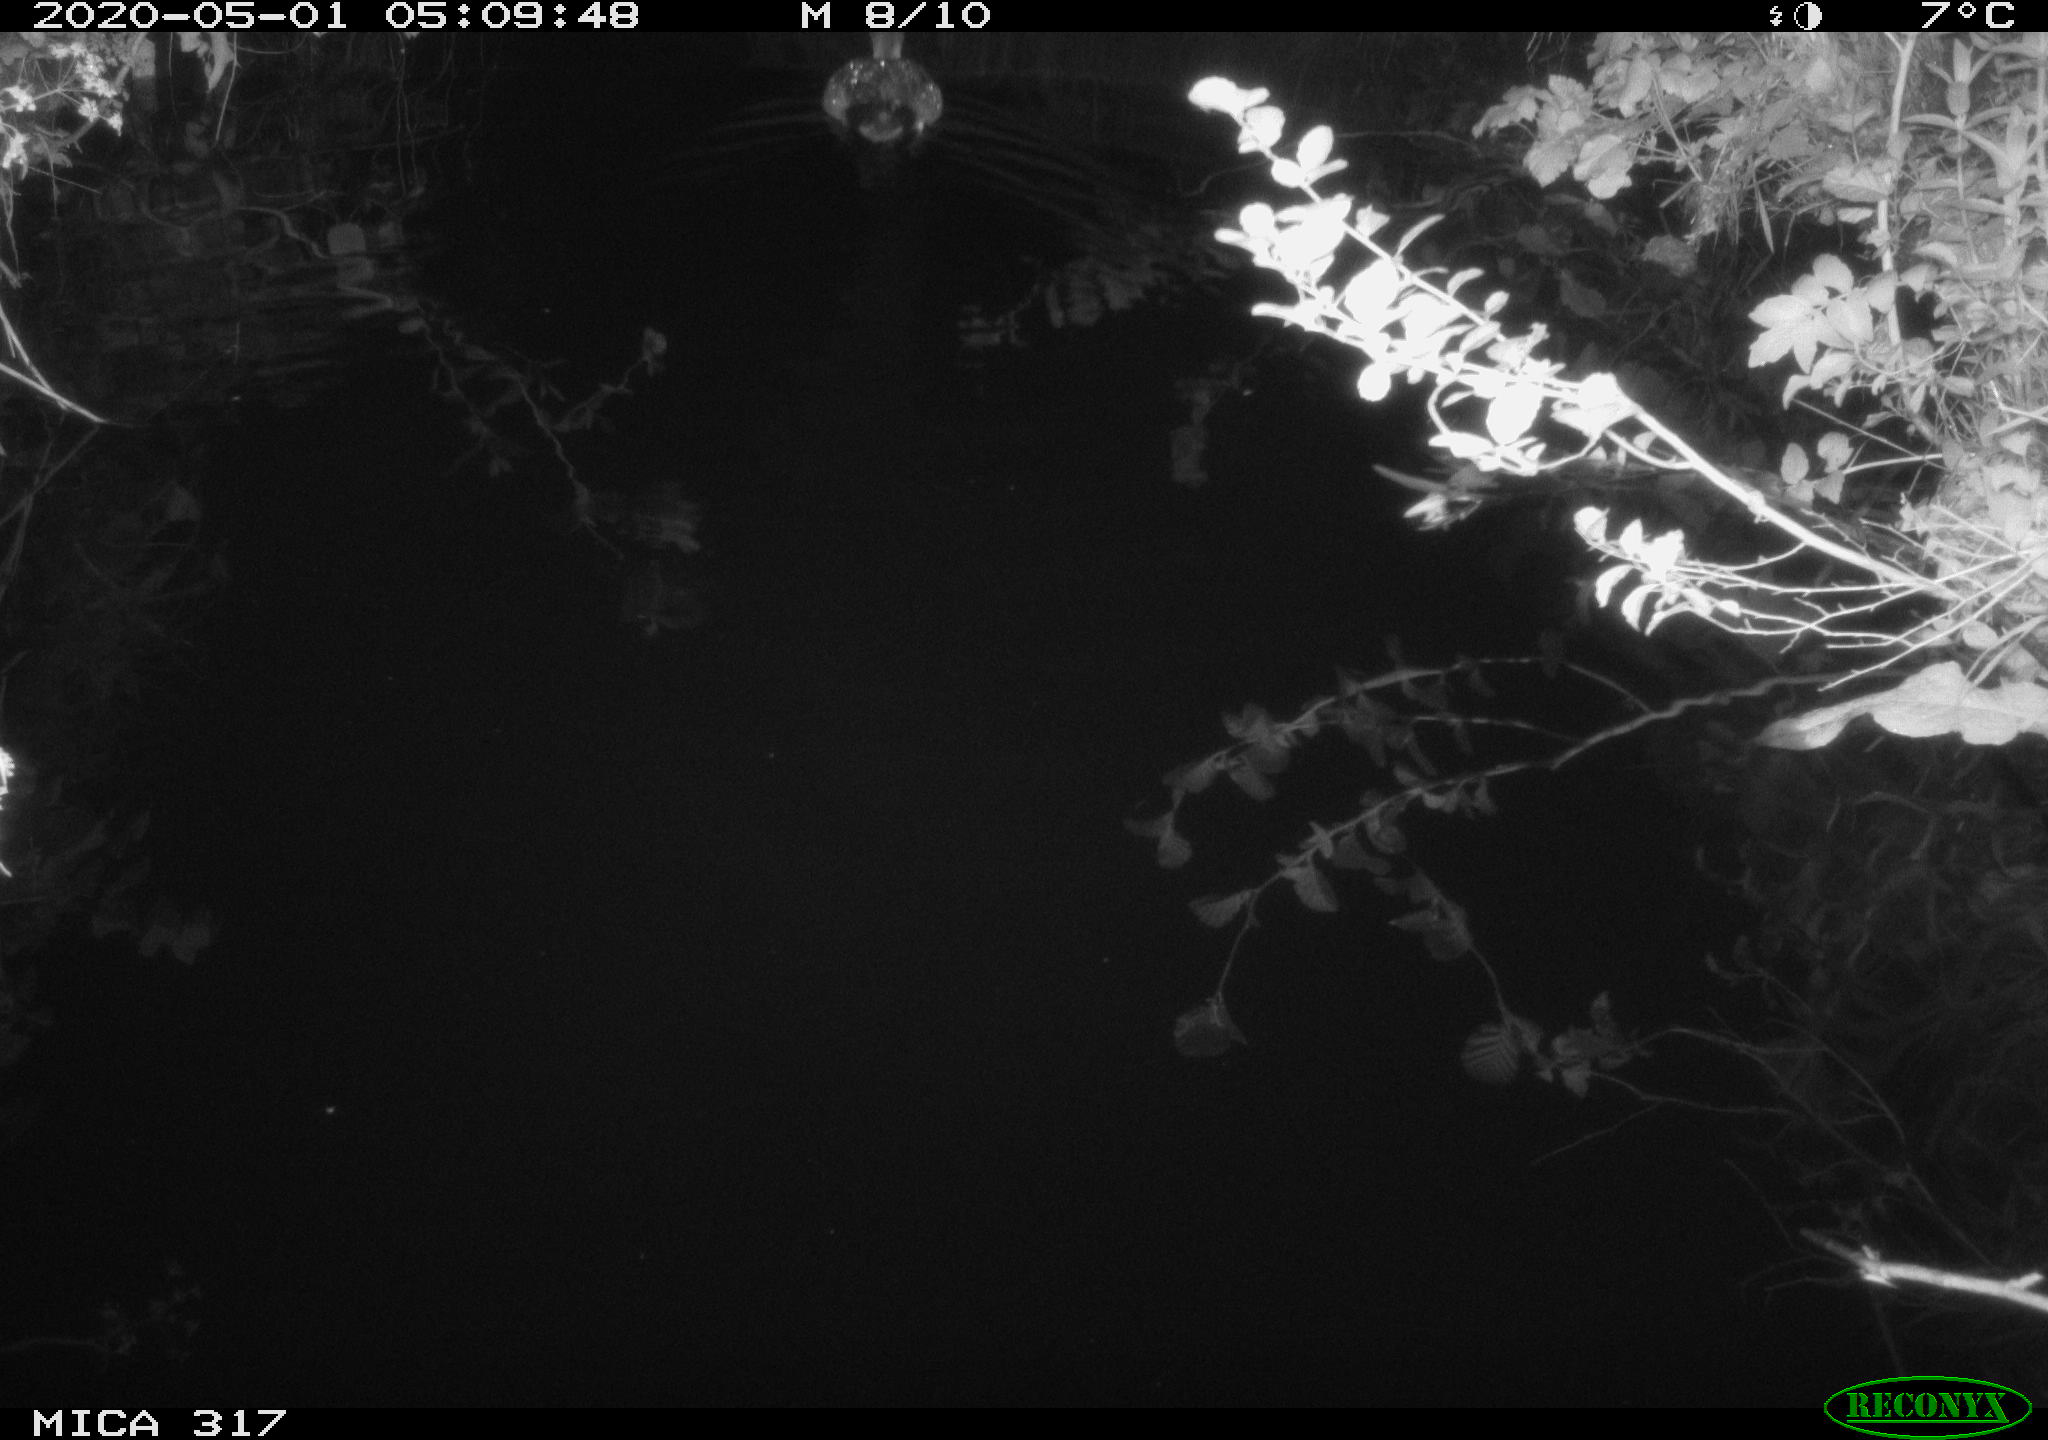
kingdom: Animalia
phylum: Chordata
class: Aves
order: Anseriformes
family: Anatidae
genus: Anas
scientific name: Anas platyrhynchos
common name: Mallard
